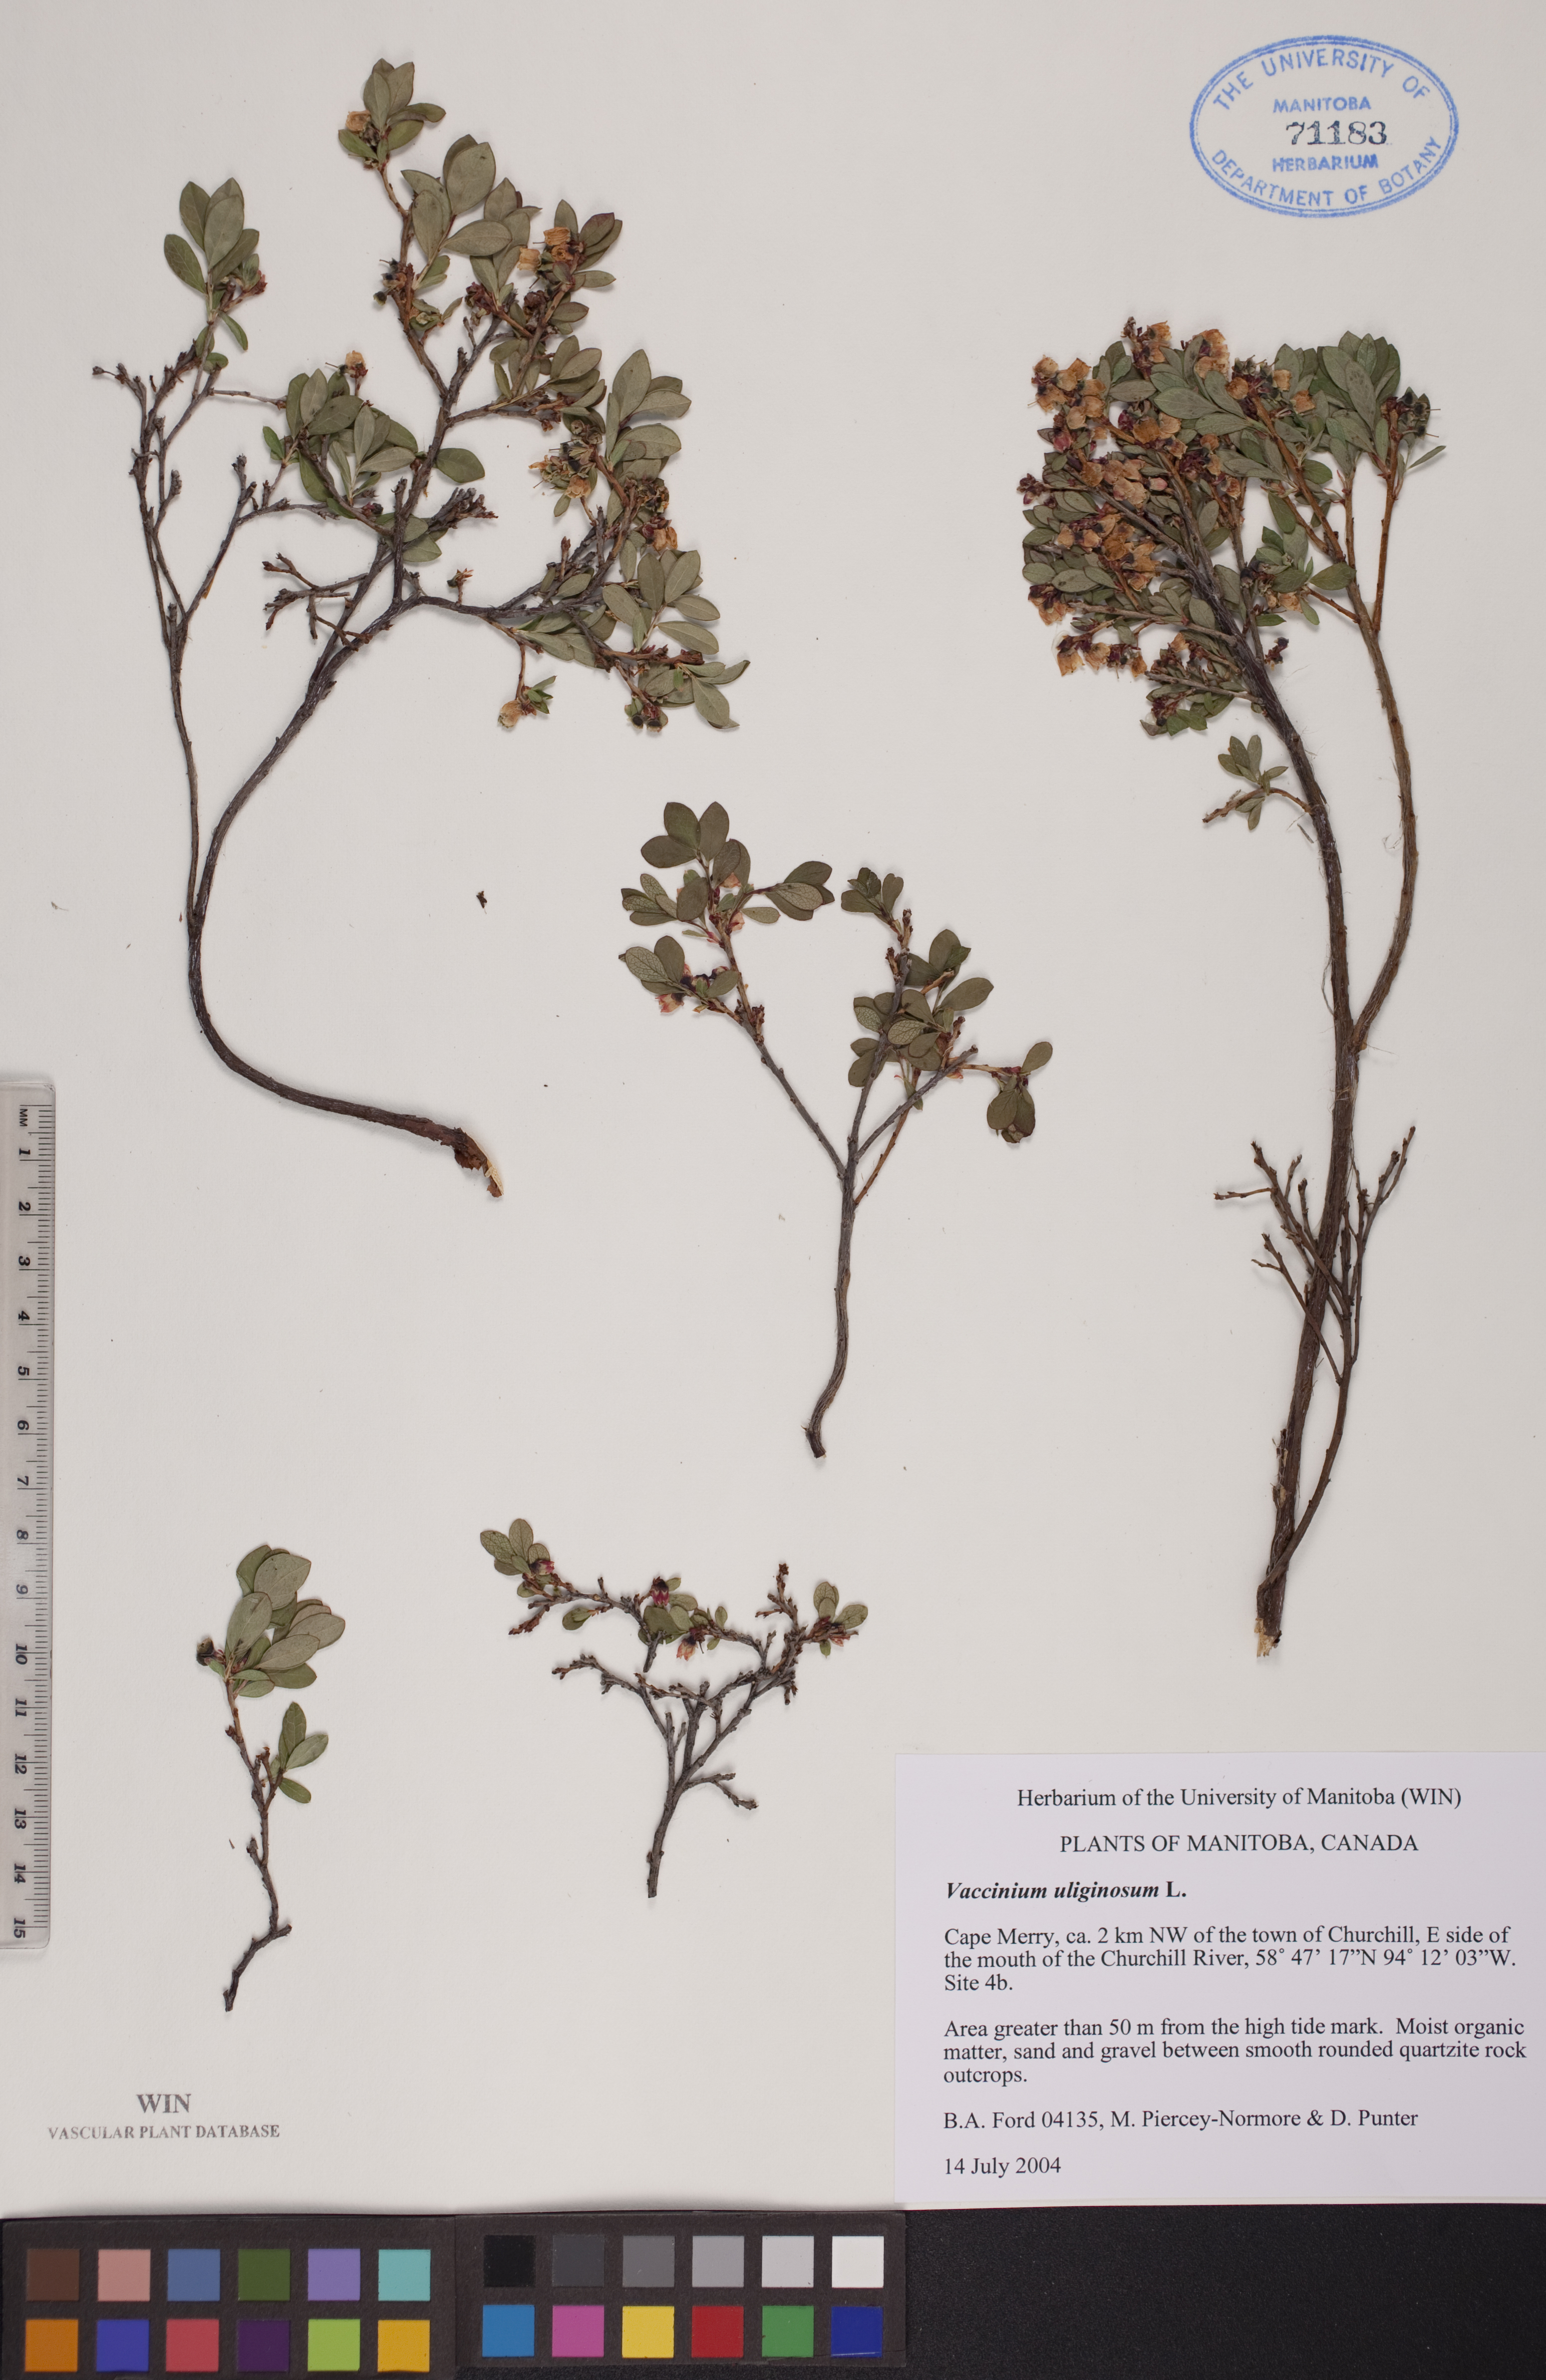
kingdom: Plantae
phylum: Tracheophyta
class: Magnoliopsida
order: Ericales
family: Ericaceae
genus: Vaccinium
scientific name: Vaccinium uliginosum
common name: Bog bilberry
